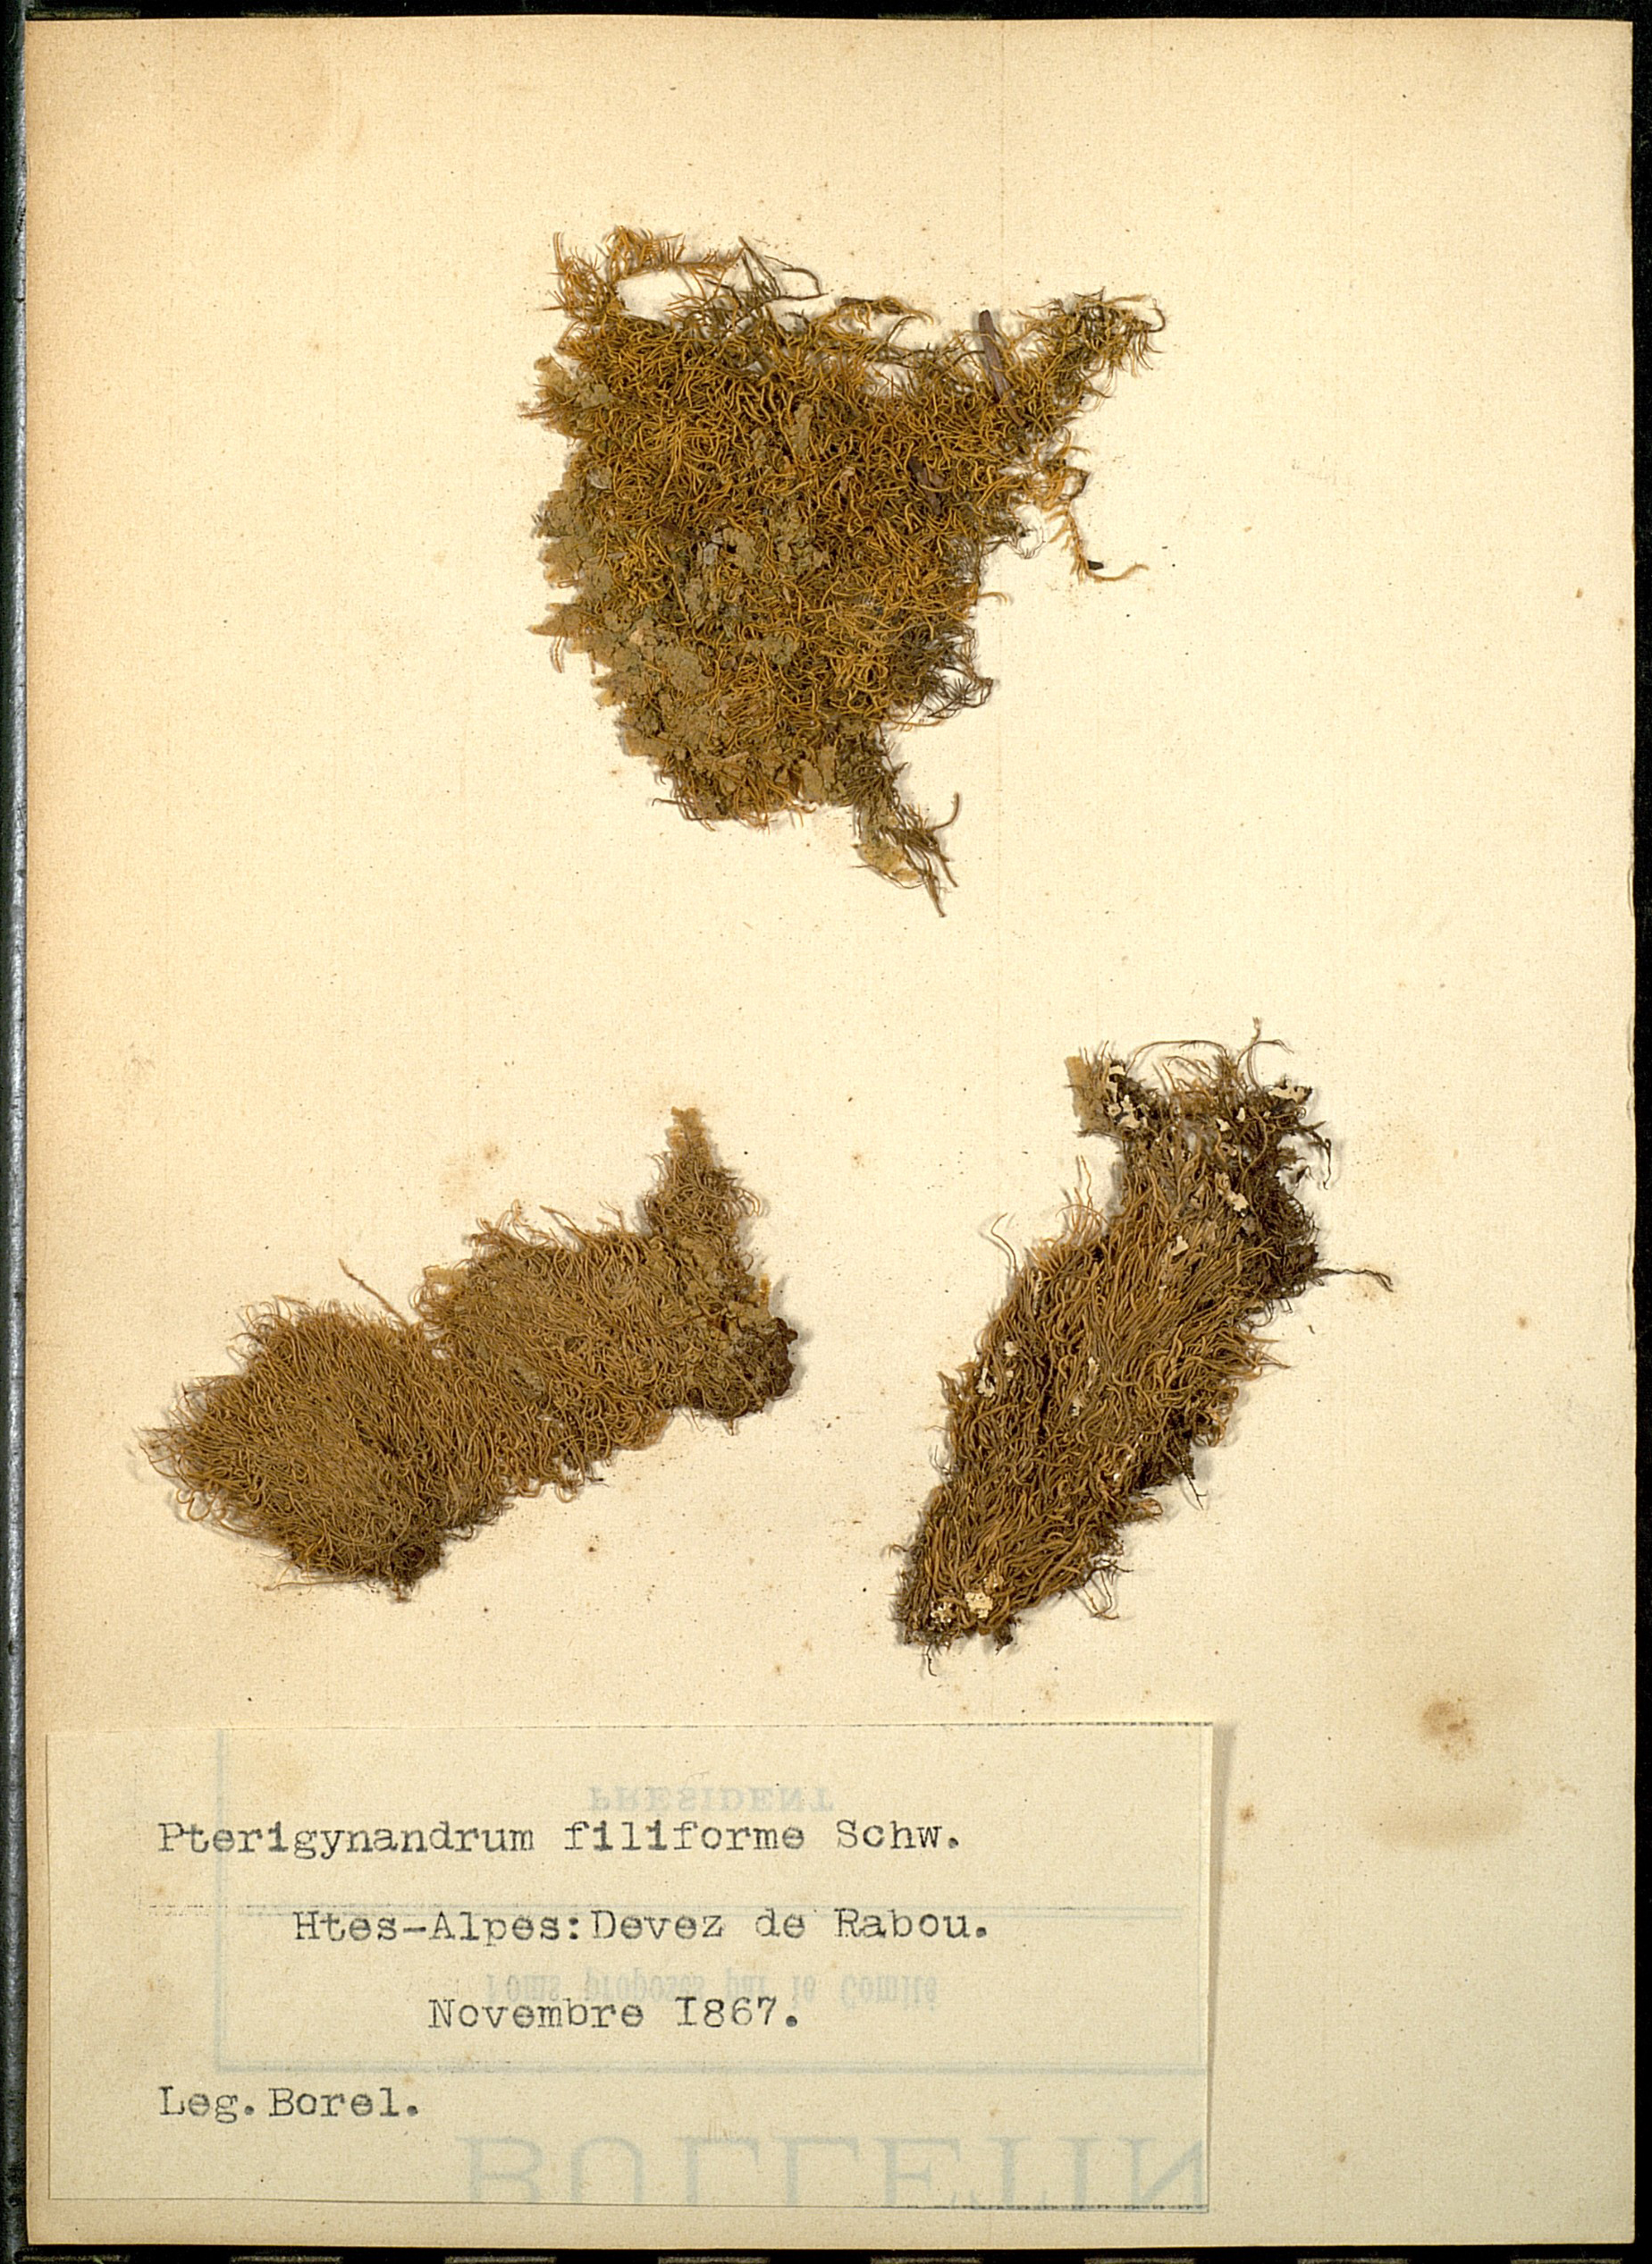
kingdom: Plantae
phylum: Bryophyta
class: Bryopsida
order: Hypnales
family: Pterigynandraceae
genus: Pterigynandrum
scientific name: Pterigynandrum filiforme
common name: Capillary wing moss
